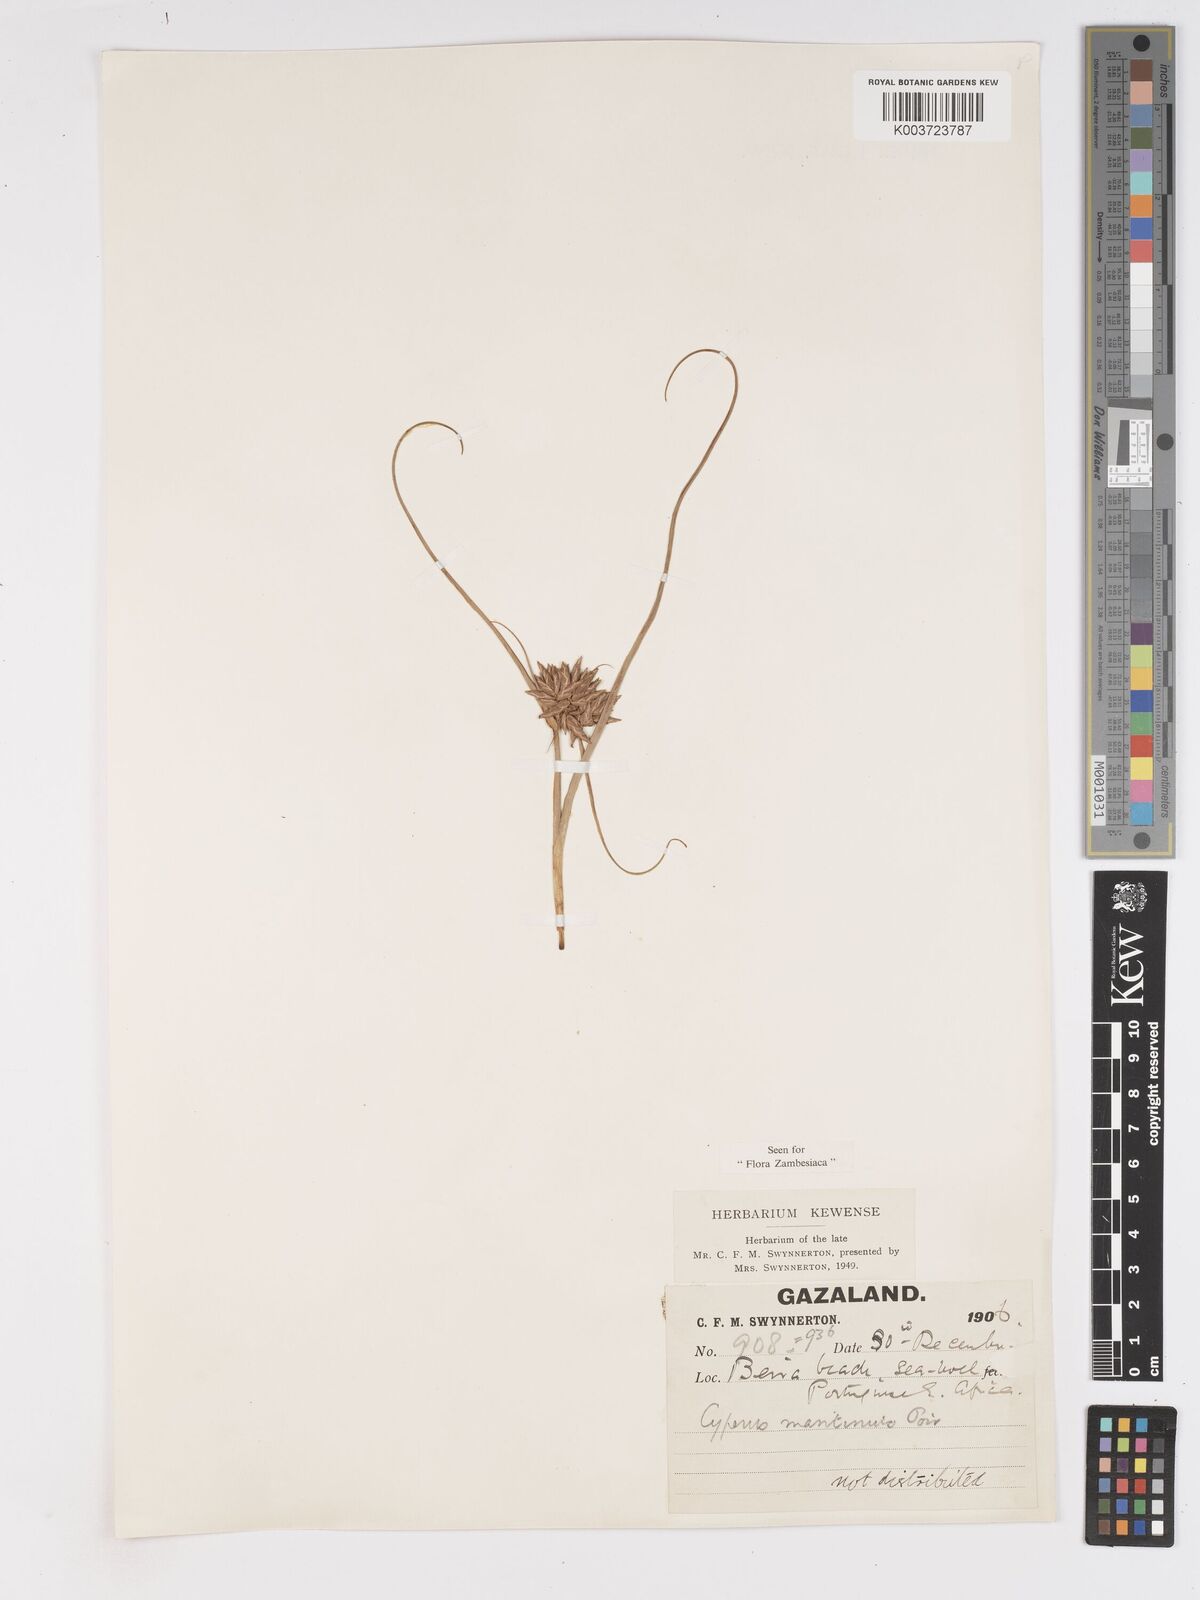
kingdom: Plantae
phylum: Tracheophyta
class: Liliopsida
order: Poales
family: Cyperaceae
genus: Cyperus
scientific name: Cyperus crassipes
